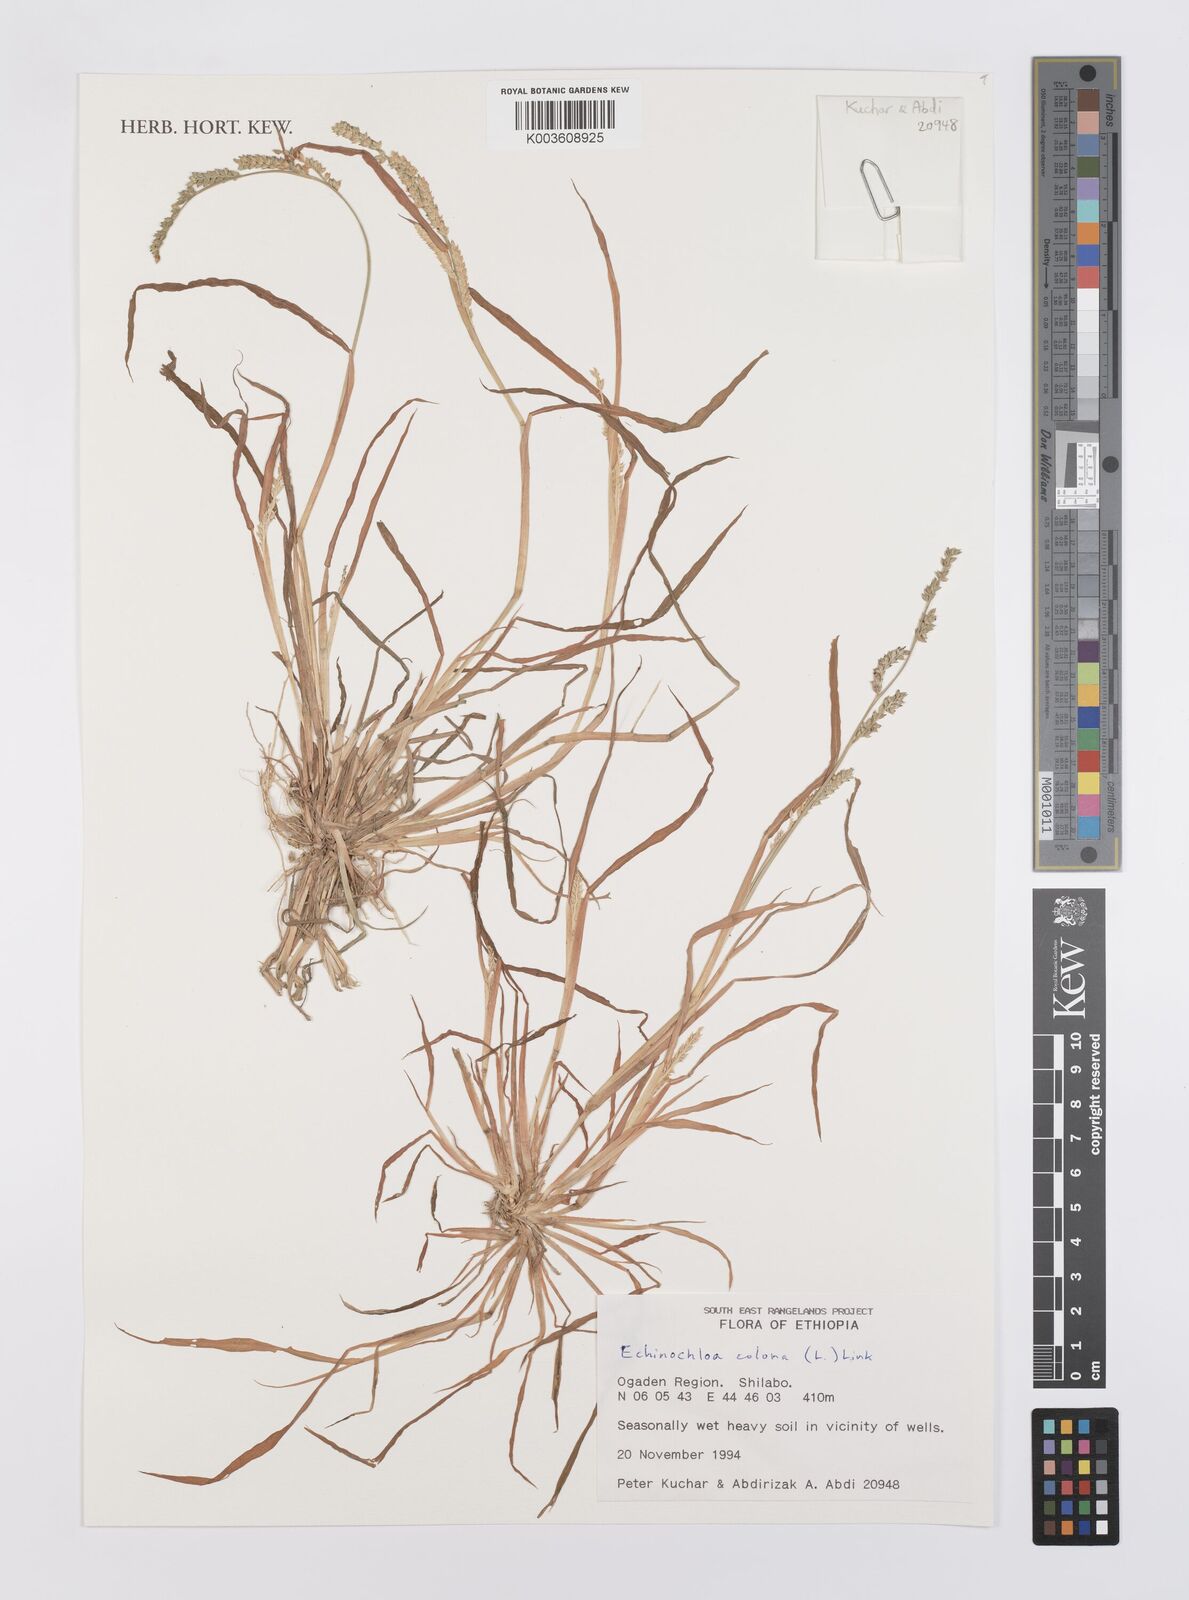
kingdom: Plantae
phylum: Tracheophyta
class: Liliopsida
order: Poales
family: Poaceae
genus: Echinochloa
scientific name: Echinochloa colonum
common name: Jungle rice
